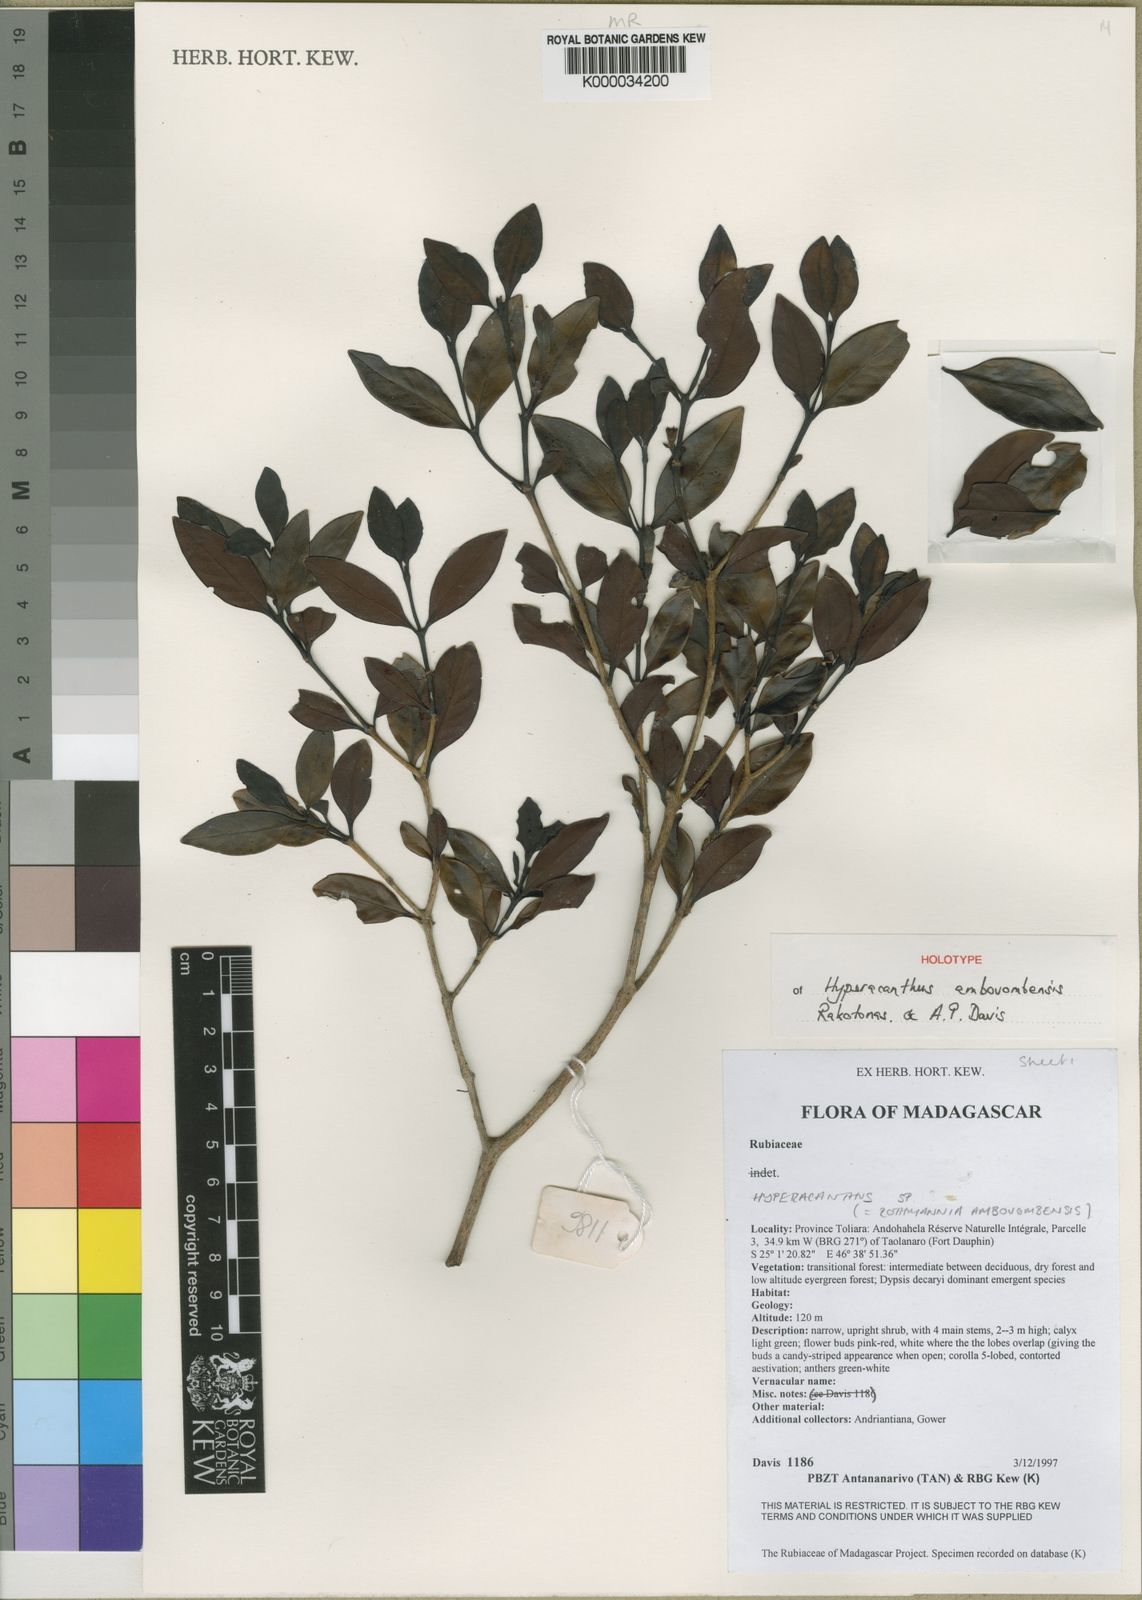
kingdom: Plantae
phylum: Tracheophyta
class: Magnoliopsida
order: Gentianales
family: Rubiaceae
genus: Hyperacanthus
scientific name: Hyperacanthus ambovombensis
